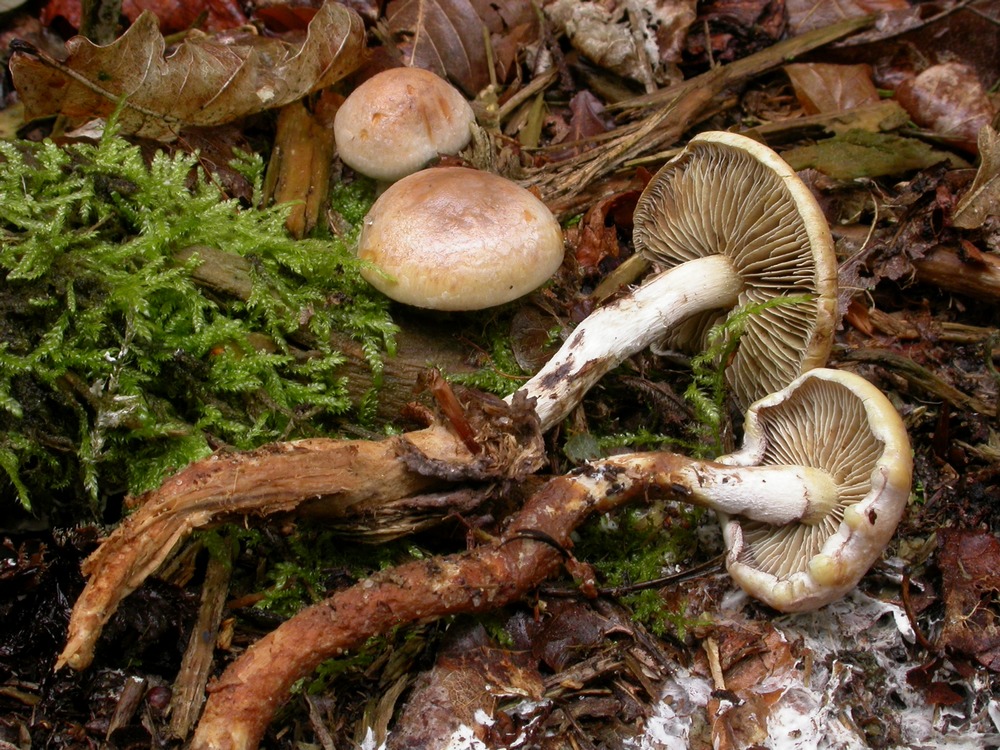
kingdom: Fungi
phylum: Basidiomycota
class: Agaricomycetes
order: Agaricales
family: Strophariaceae
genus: Hypholoma
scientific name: Hypholoma radicosum
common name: pælerods-svovlhat
